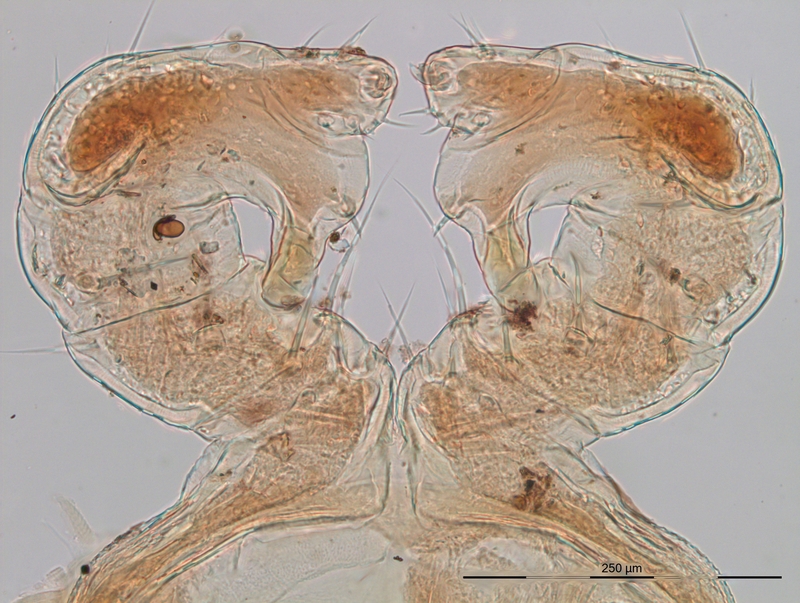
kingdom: Animalia
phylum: Arthropoda
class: Diplopoda
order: Julida
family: Blaniulidae
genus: Blaniulus
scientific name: Blaniulus dollfusi
